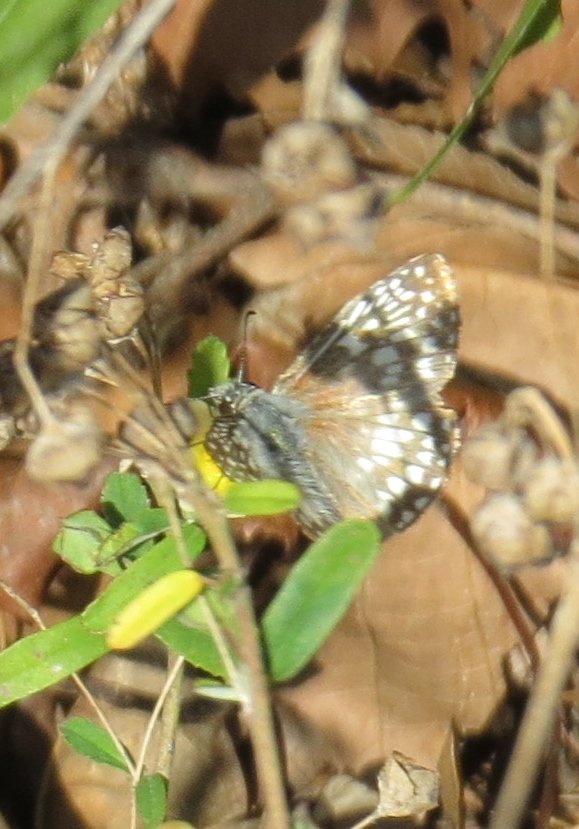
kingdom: Animalia
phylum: Arthropoda
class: Insecta
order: Lepidoptera
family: Hesperiidae
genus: Pyrgus
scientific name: Pyrgus oileus
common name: Tropical Checkered-Skipper
